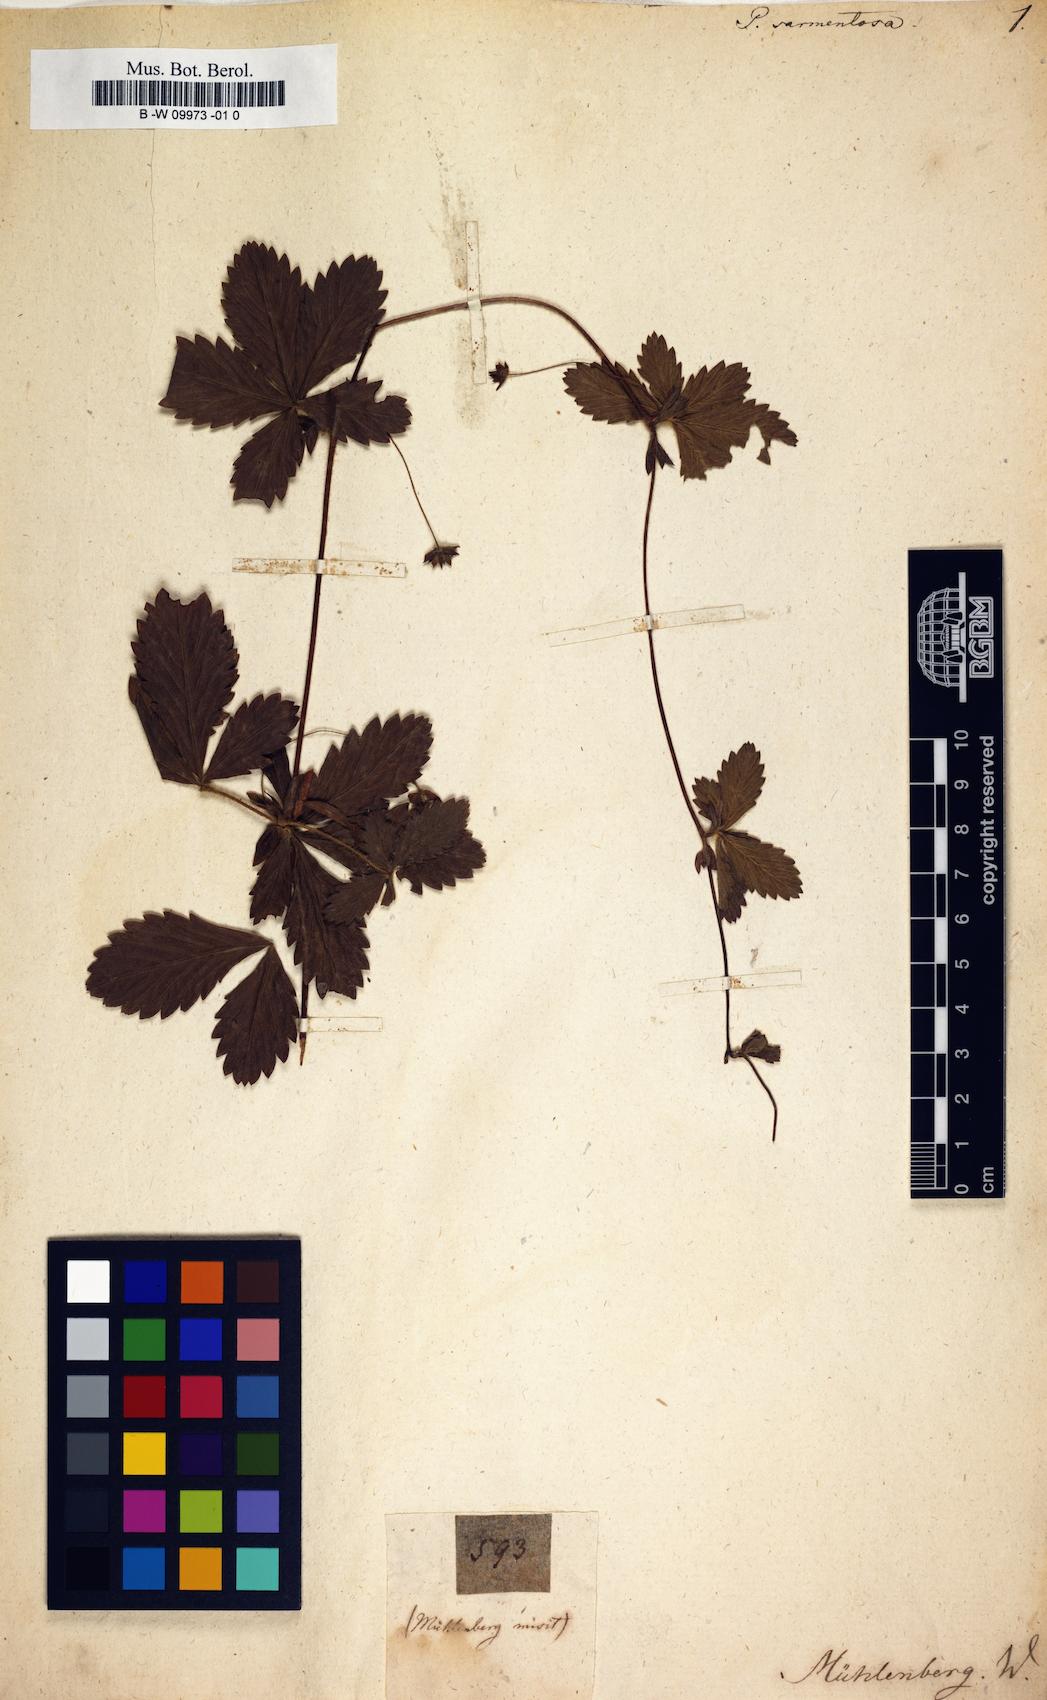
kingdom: Plantae
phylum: Tracheophyta
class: Magnoliopsida
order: Rosales
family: Rosaceae
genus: Potentilla
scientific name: Potentilla sarmentosa
